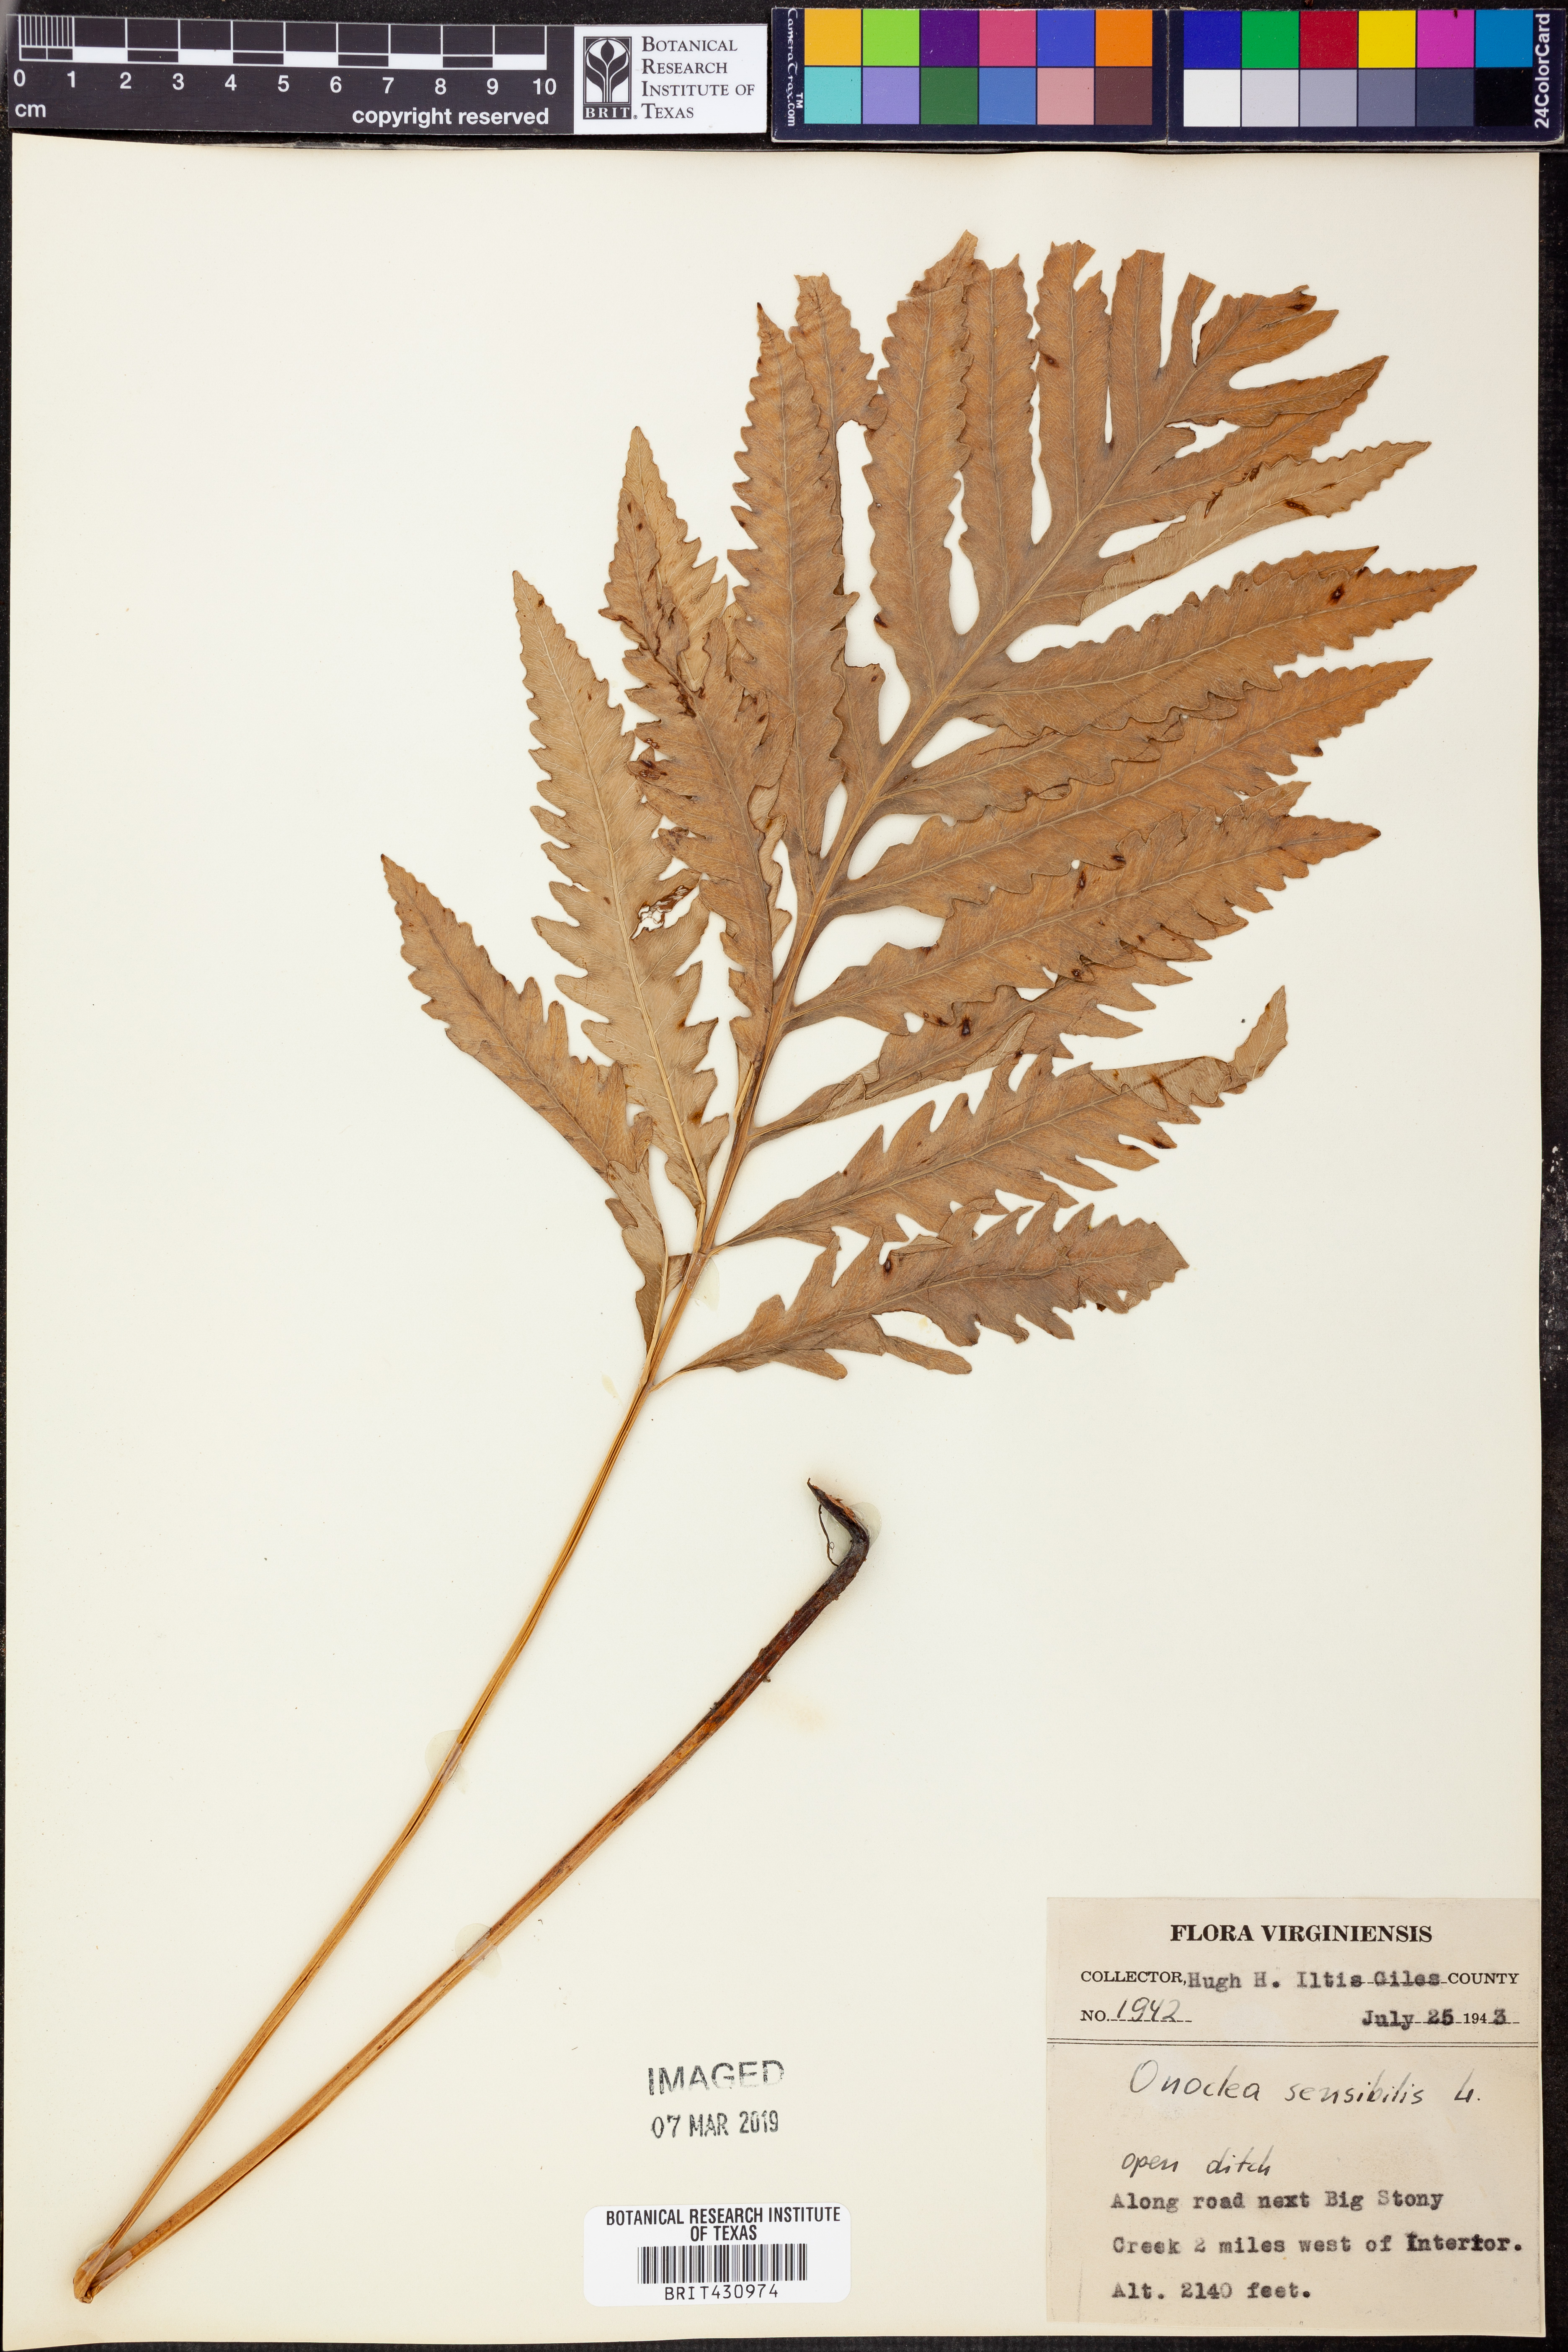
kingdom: Plantae
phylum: Tracheophyta
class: Polypodiopsida
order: Polypodiales
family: Onocleaceae
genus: Onoclea
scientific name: Onoclea sensibilis
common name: Sensitive fern
